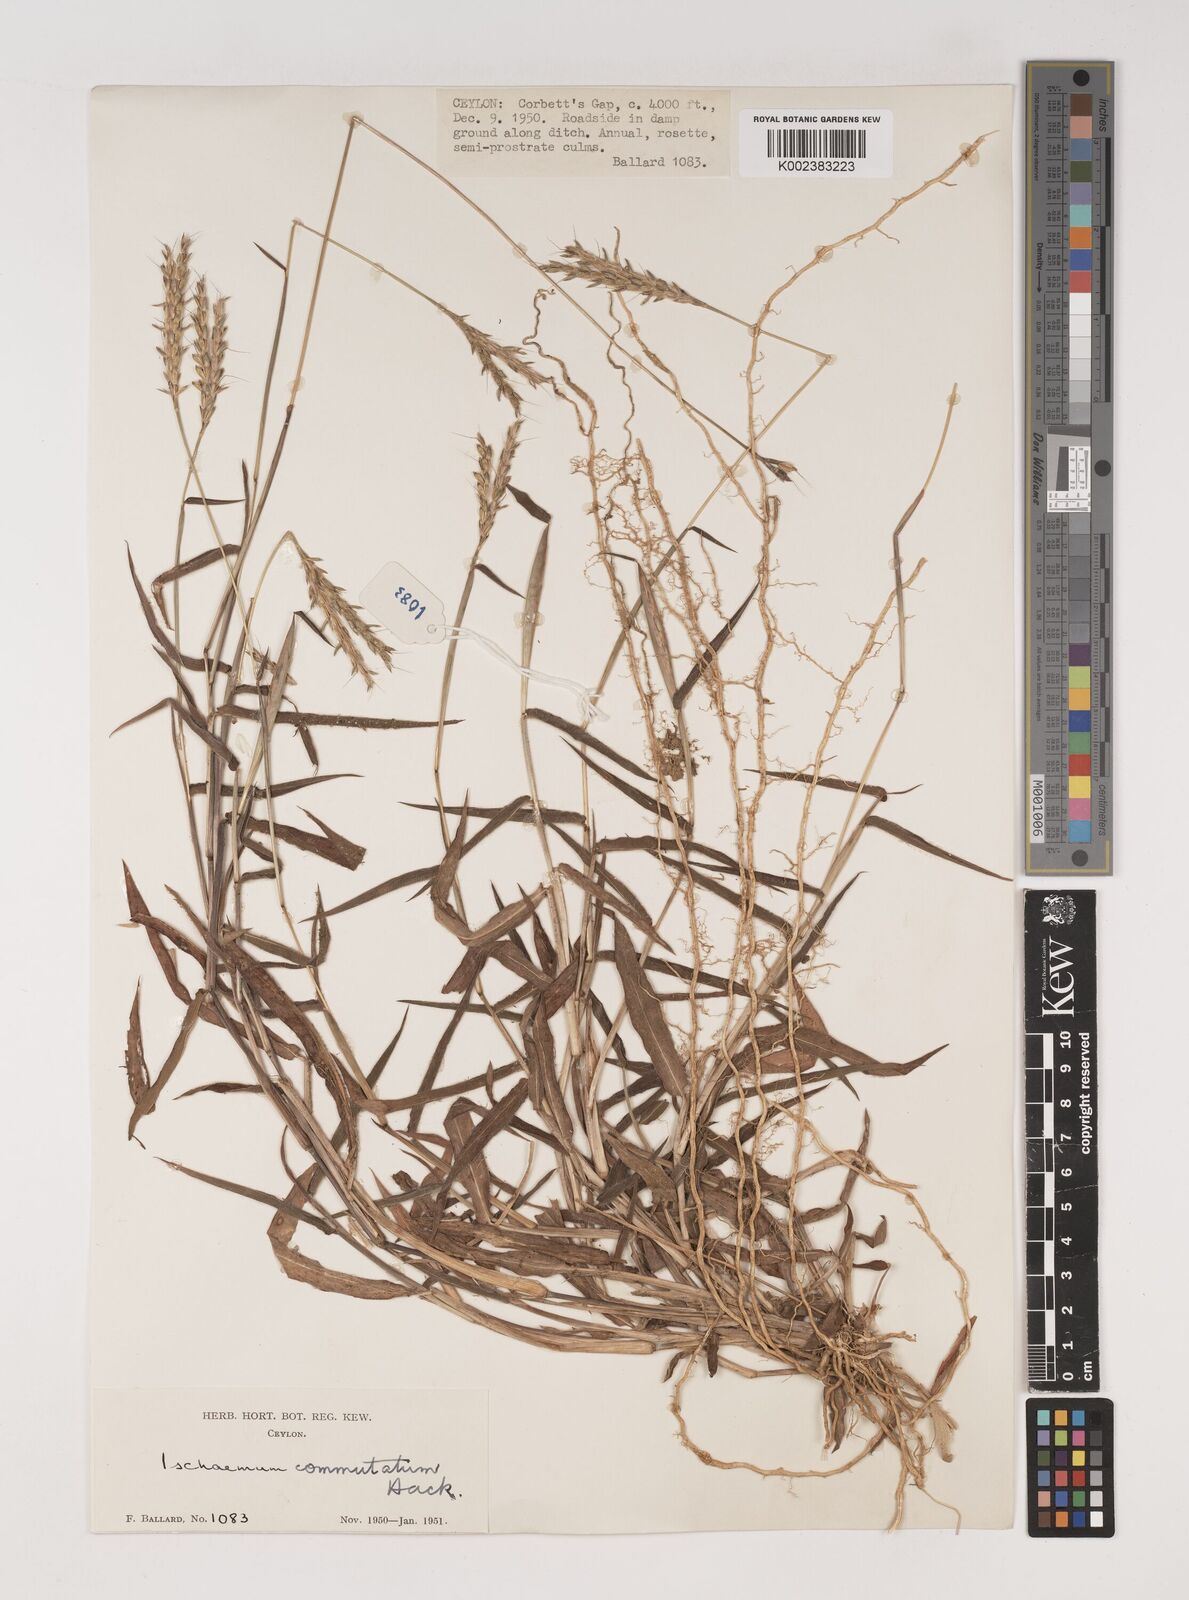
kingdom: Plantae
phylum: Tracheophyta
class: Liliopsida
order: Poales
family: Poaceae
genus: Ischaemum
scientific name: Ischaemum commutatum
